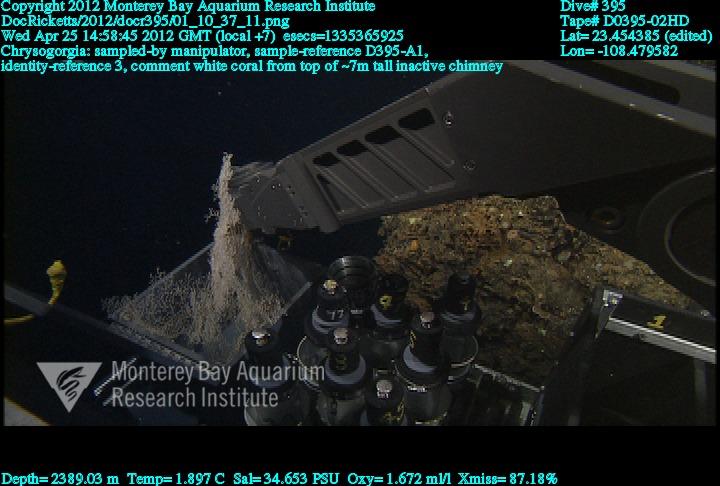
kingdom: Animalia
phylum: Cnidaria
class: Anthozoa
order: Scleralcyonacea
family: Chrysogorgiidae
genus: Chrysogorgia
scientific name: Chrysogorgia
